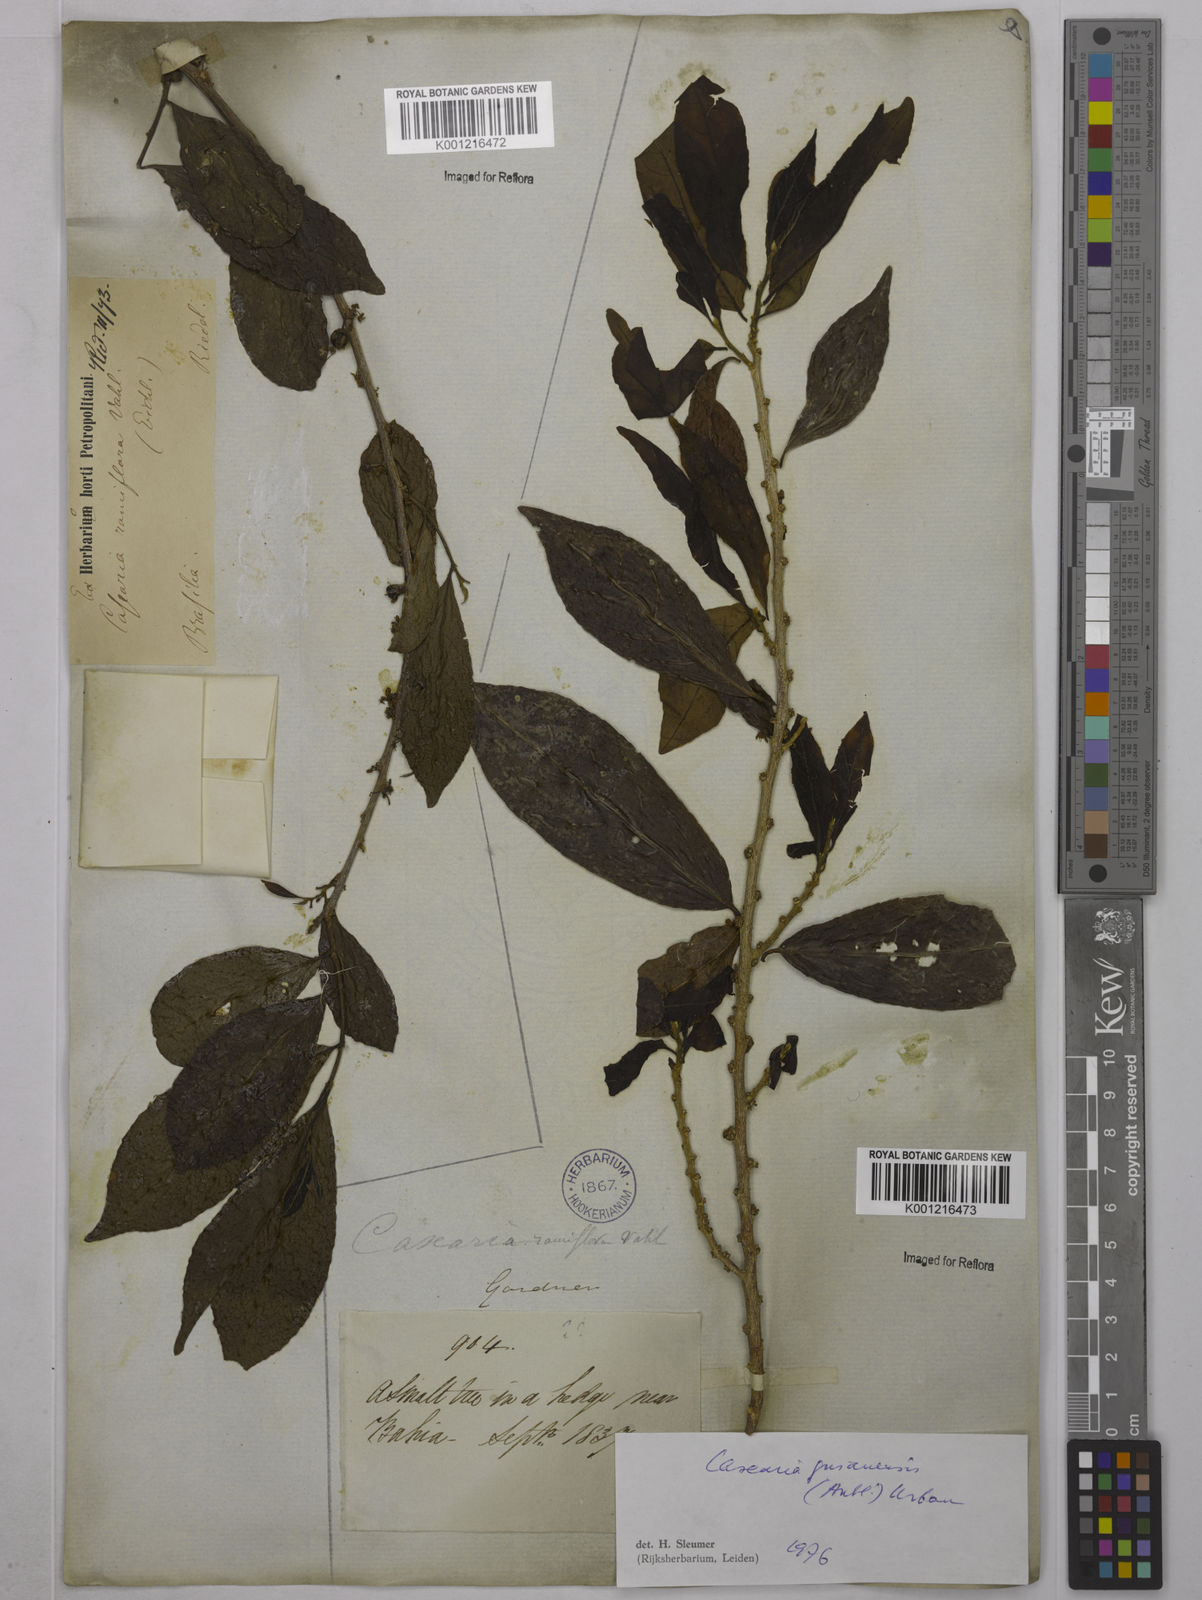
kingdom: Plantae
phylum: Tracheophyta
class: Magnoliopsida
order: Malpighiales
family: Salicaceae
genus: Casearia
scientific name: Casearia guianensis
